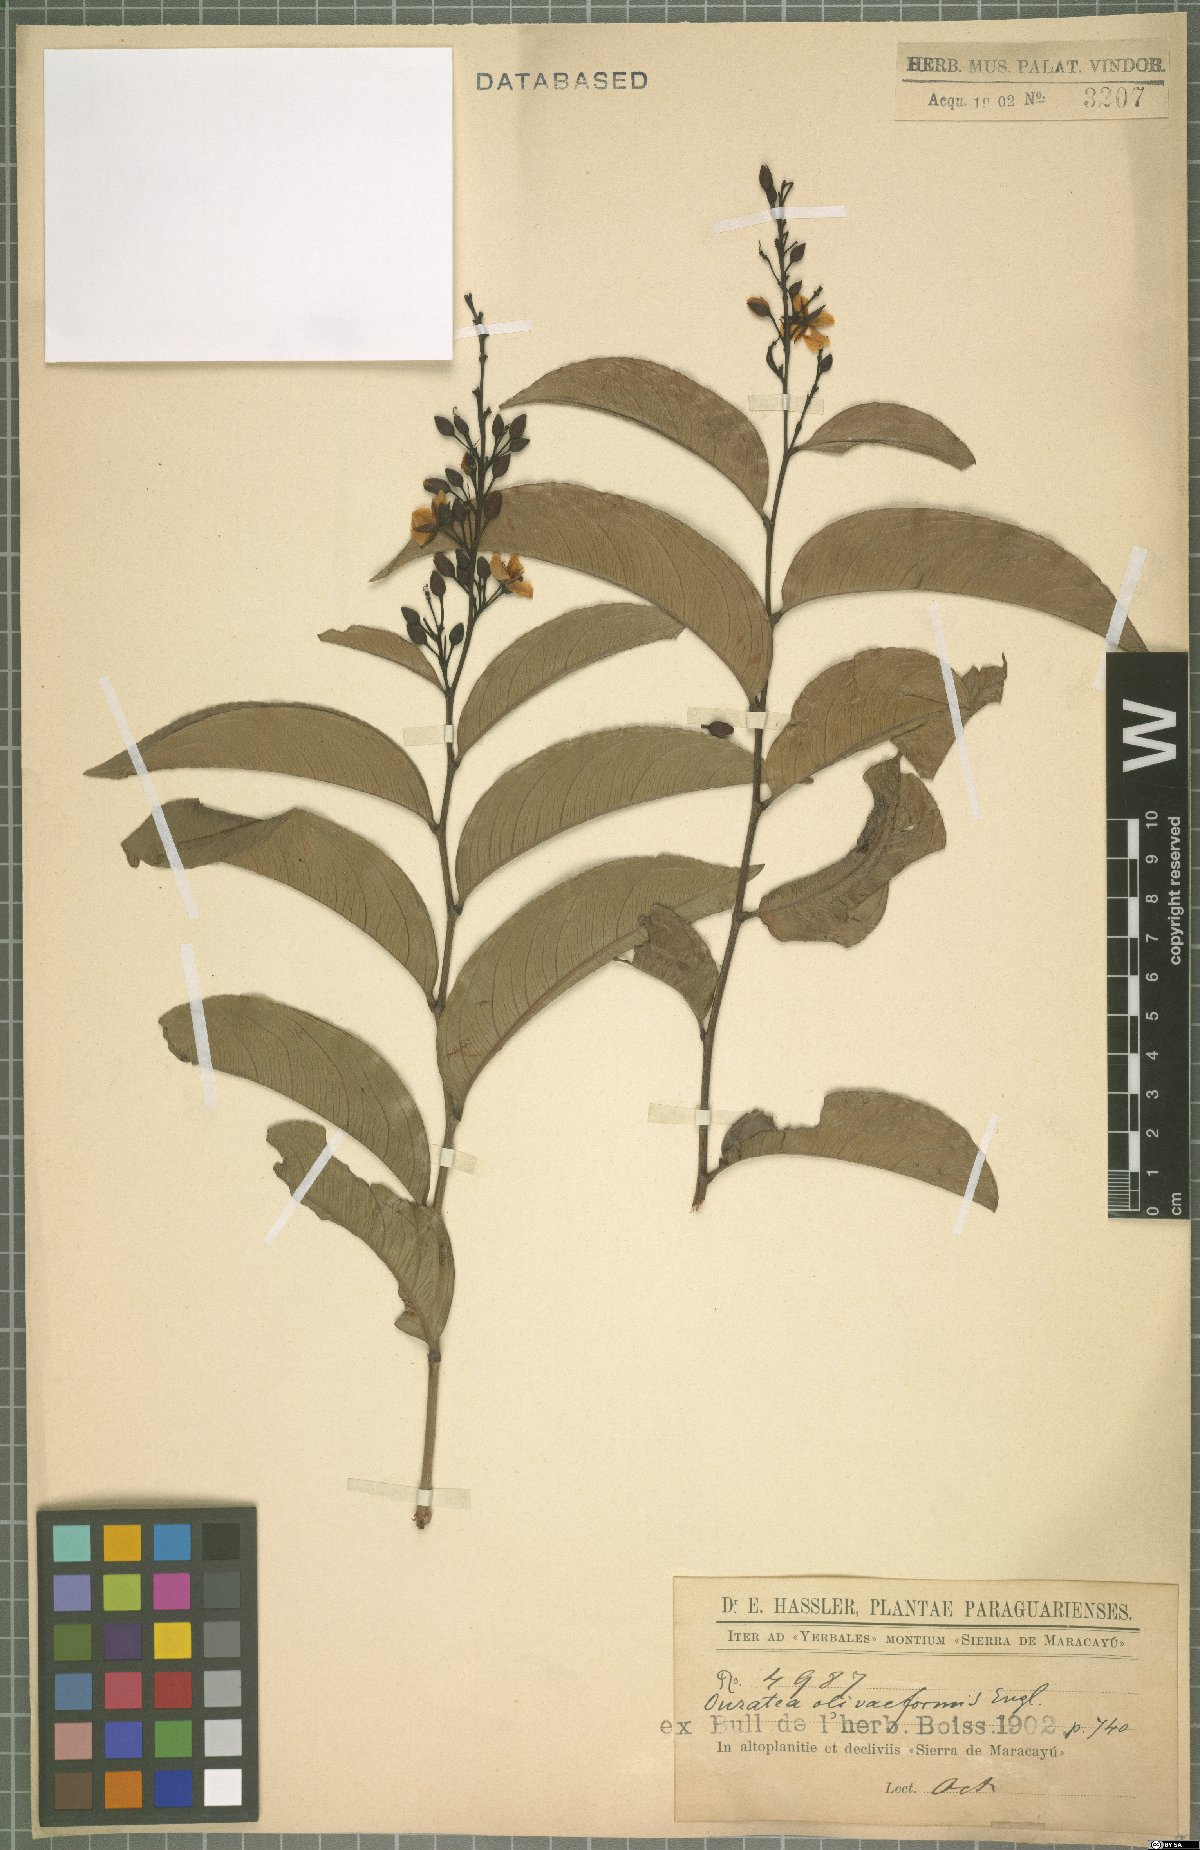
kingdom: Plantae
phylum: Tracheophyta
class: Magnoliopsida
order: Malpighiales
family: Ochnaceae
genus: Ouratea
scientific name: Ouratea oliviformis
